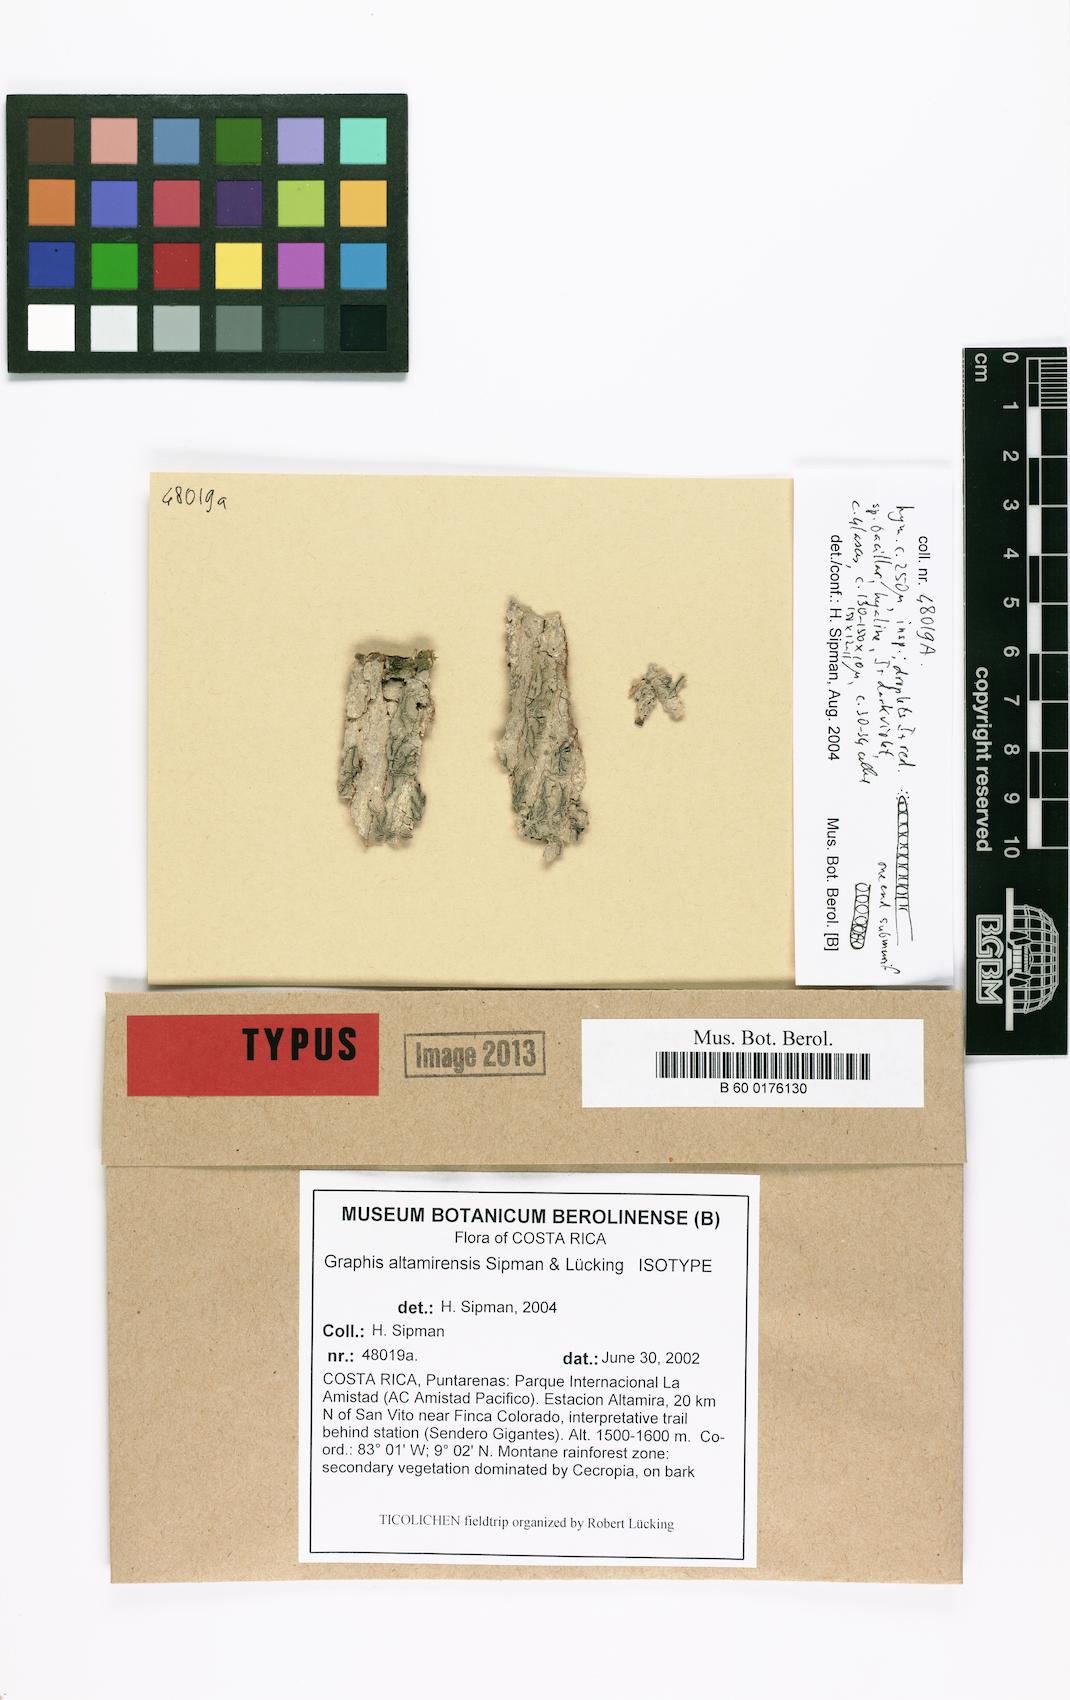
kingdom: Fungi
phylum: Ascomycota
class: Lecanoromycetes
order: Ostropales
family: Graphidaceae
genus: Allographa
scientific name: Allographa altamirensis
